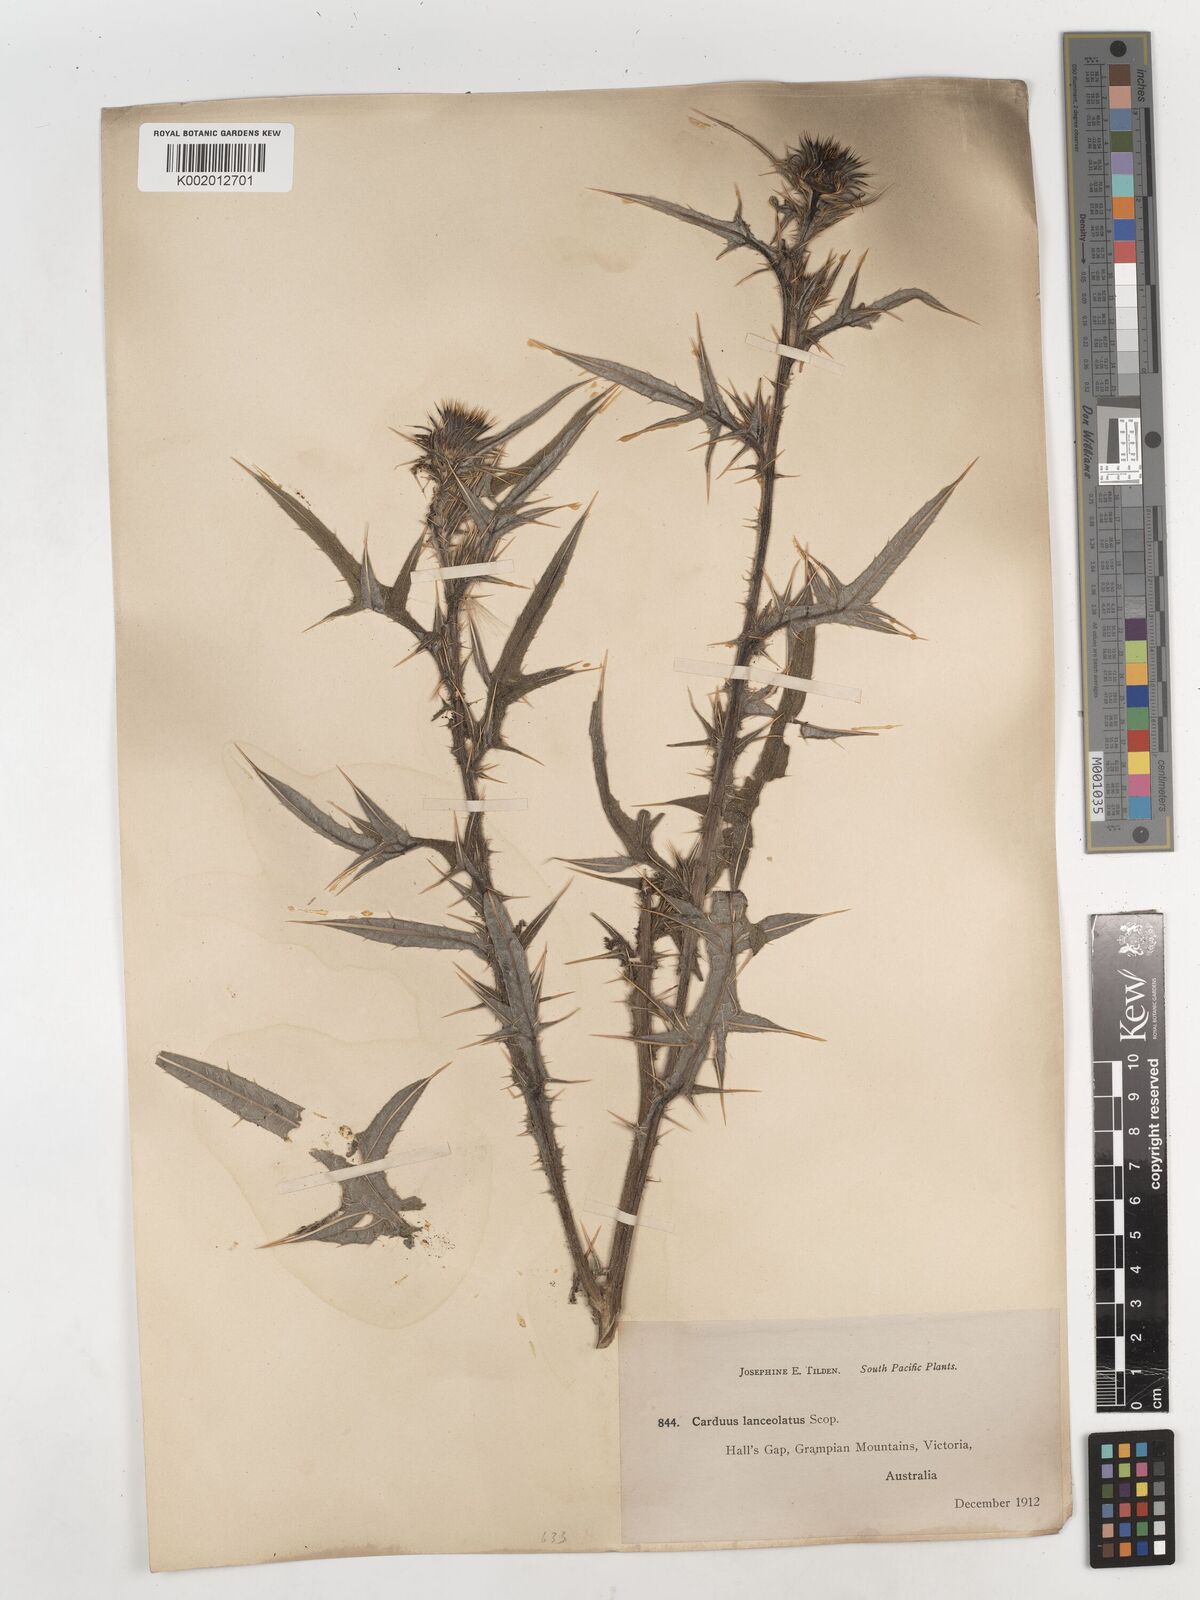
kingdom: Plantae
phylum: Tracheophyta
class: Magnoliopsida
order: Asterales
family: Asteraceae
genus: Cirsium
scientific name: Cirsium vulgare
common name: Bull thistle
